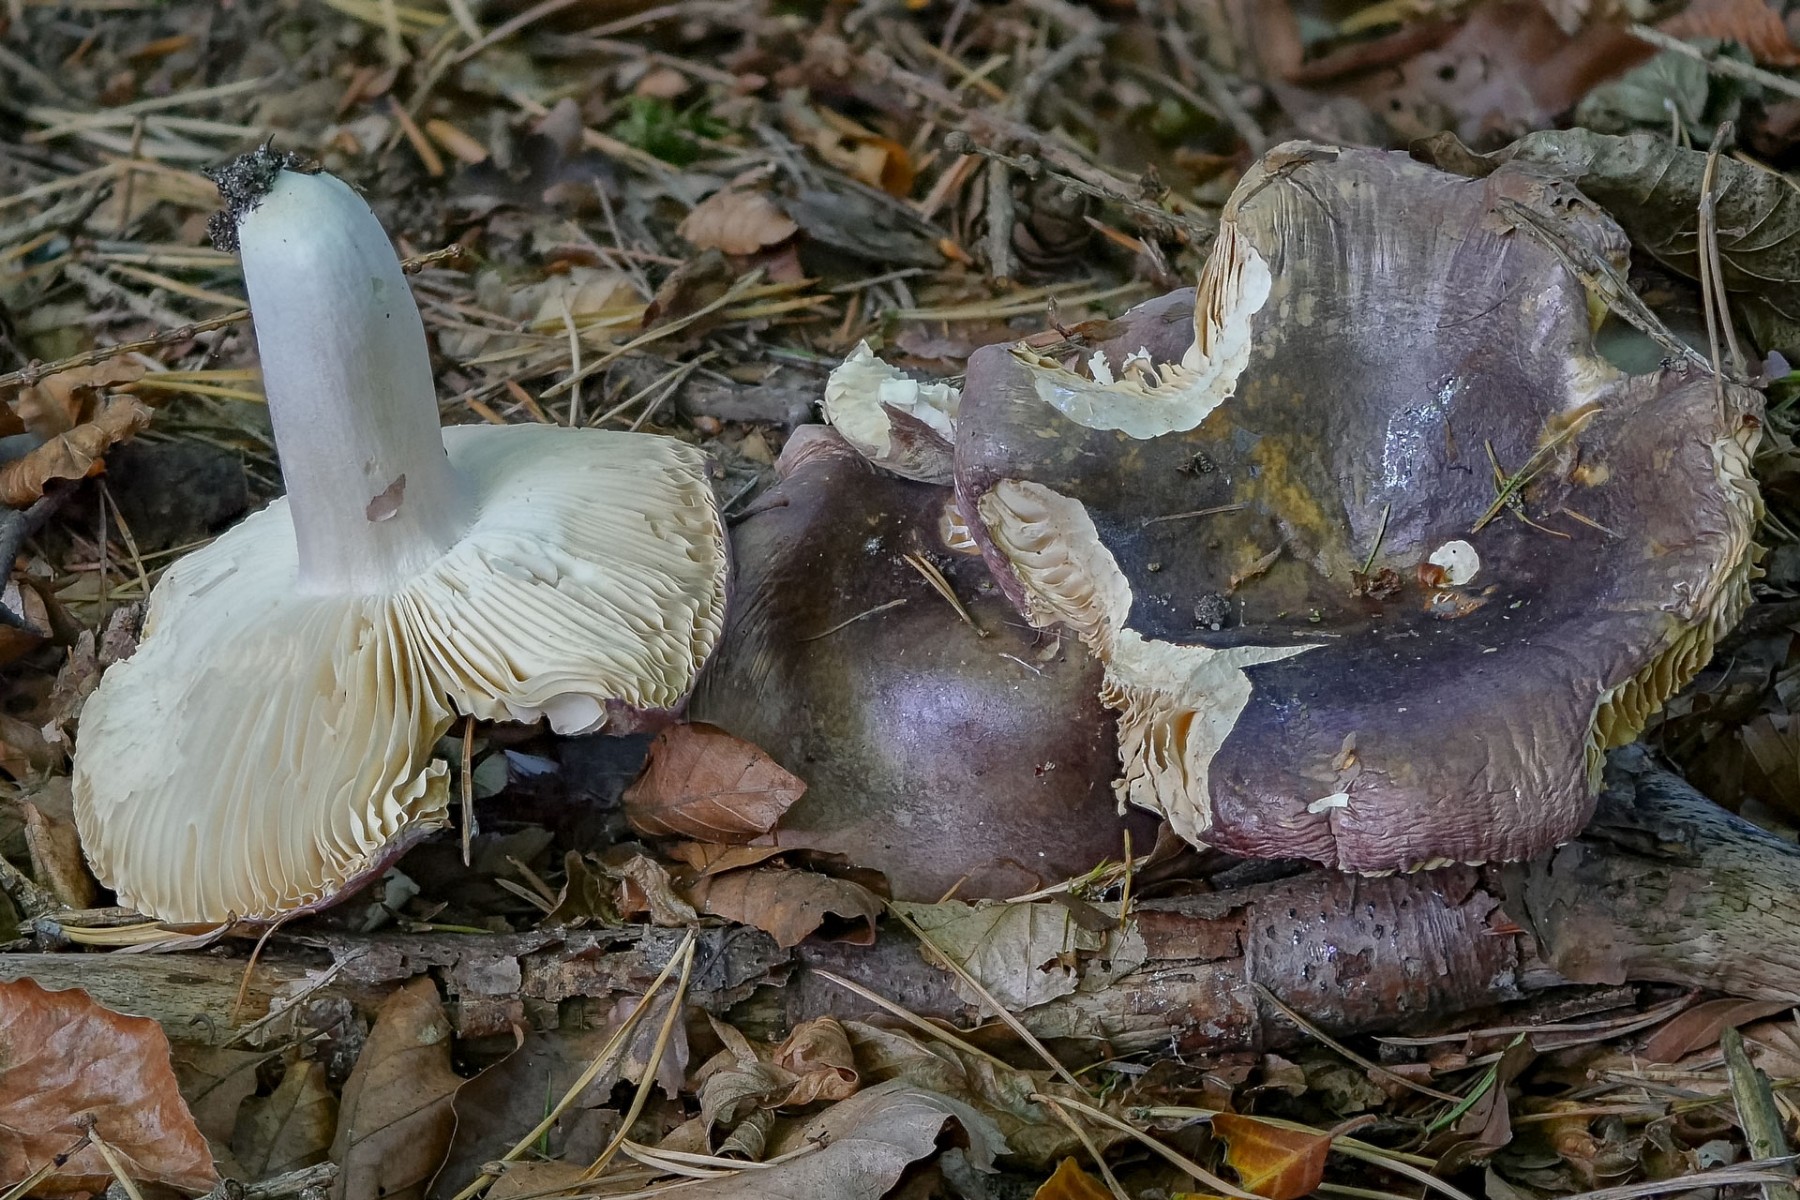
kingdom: Fungi
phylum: Basidiomycota
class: Agaricomycetes
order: Russulales
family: Russulaceae
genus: Russula
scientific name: Russula turci
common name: jod-skørhat
